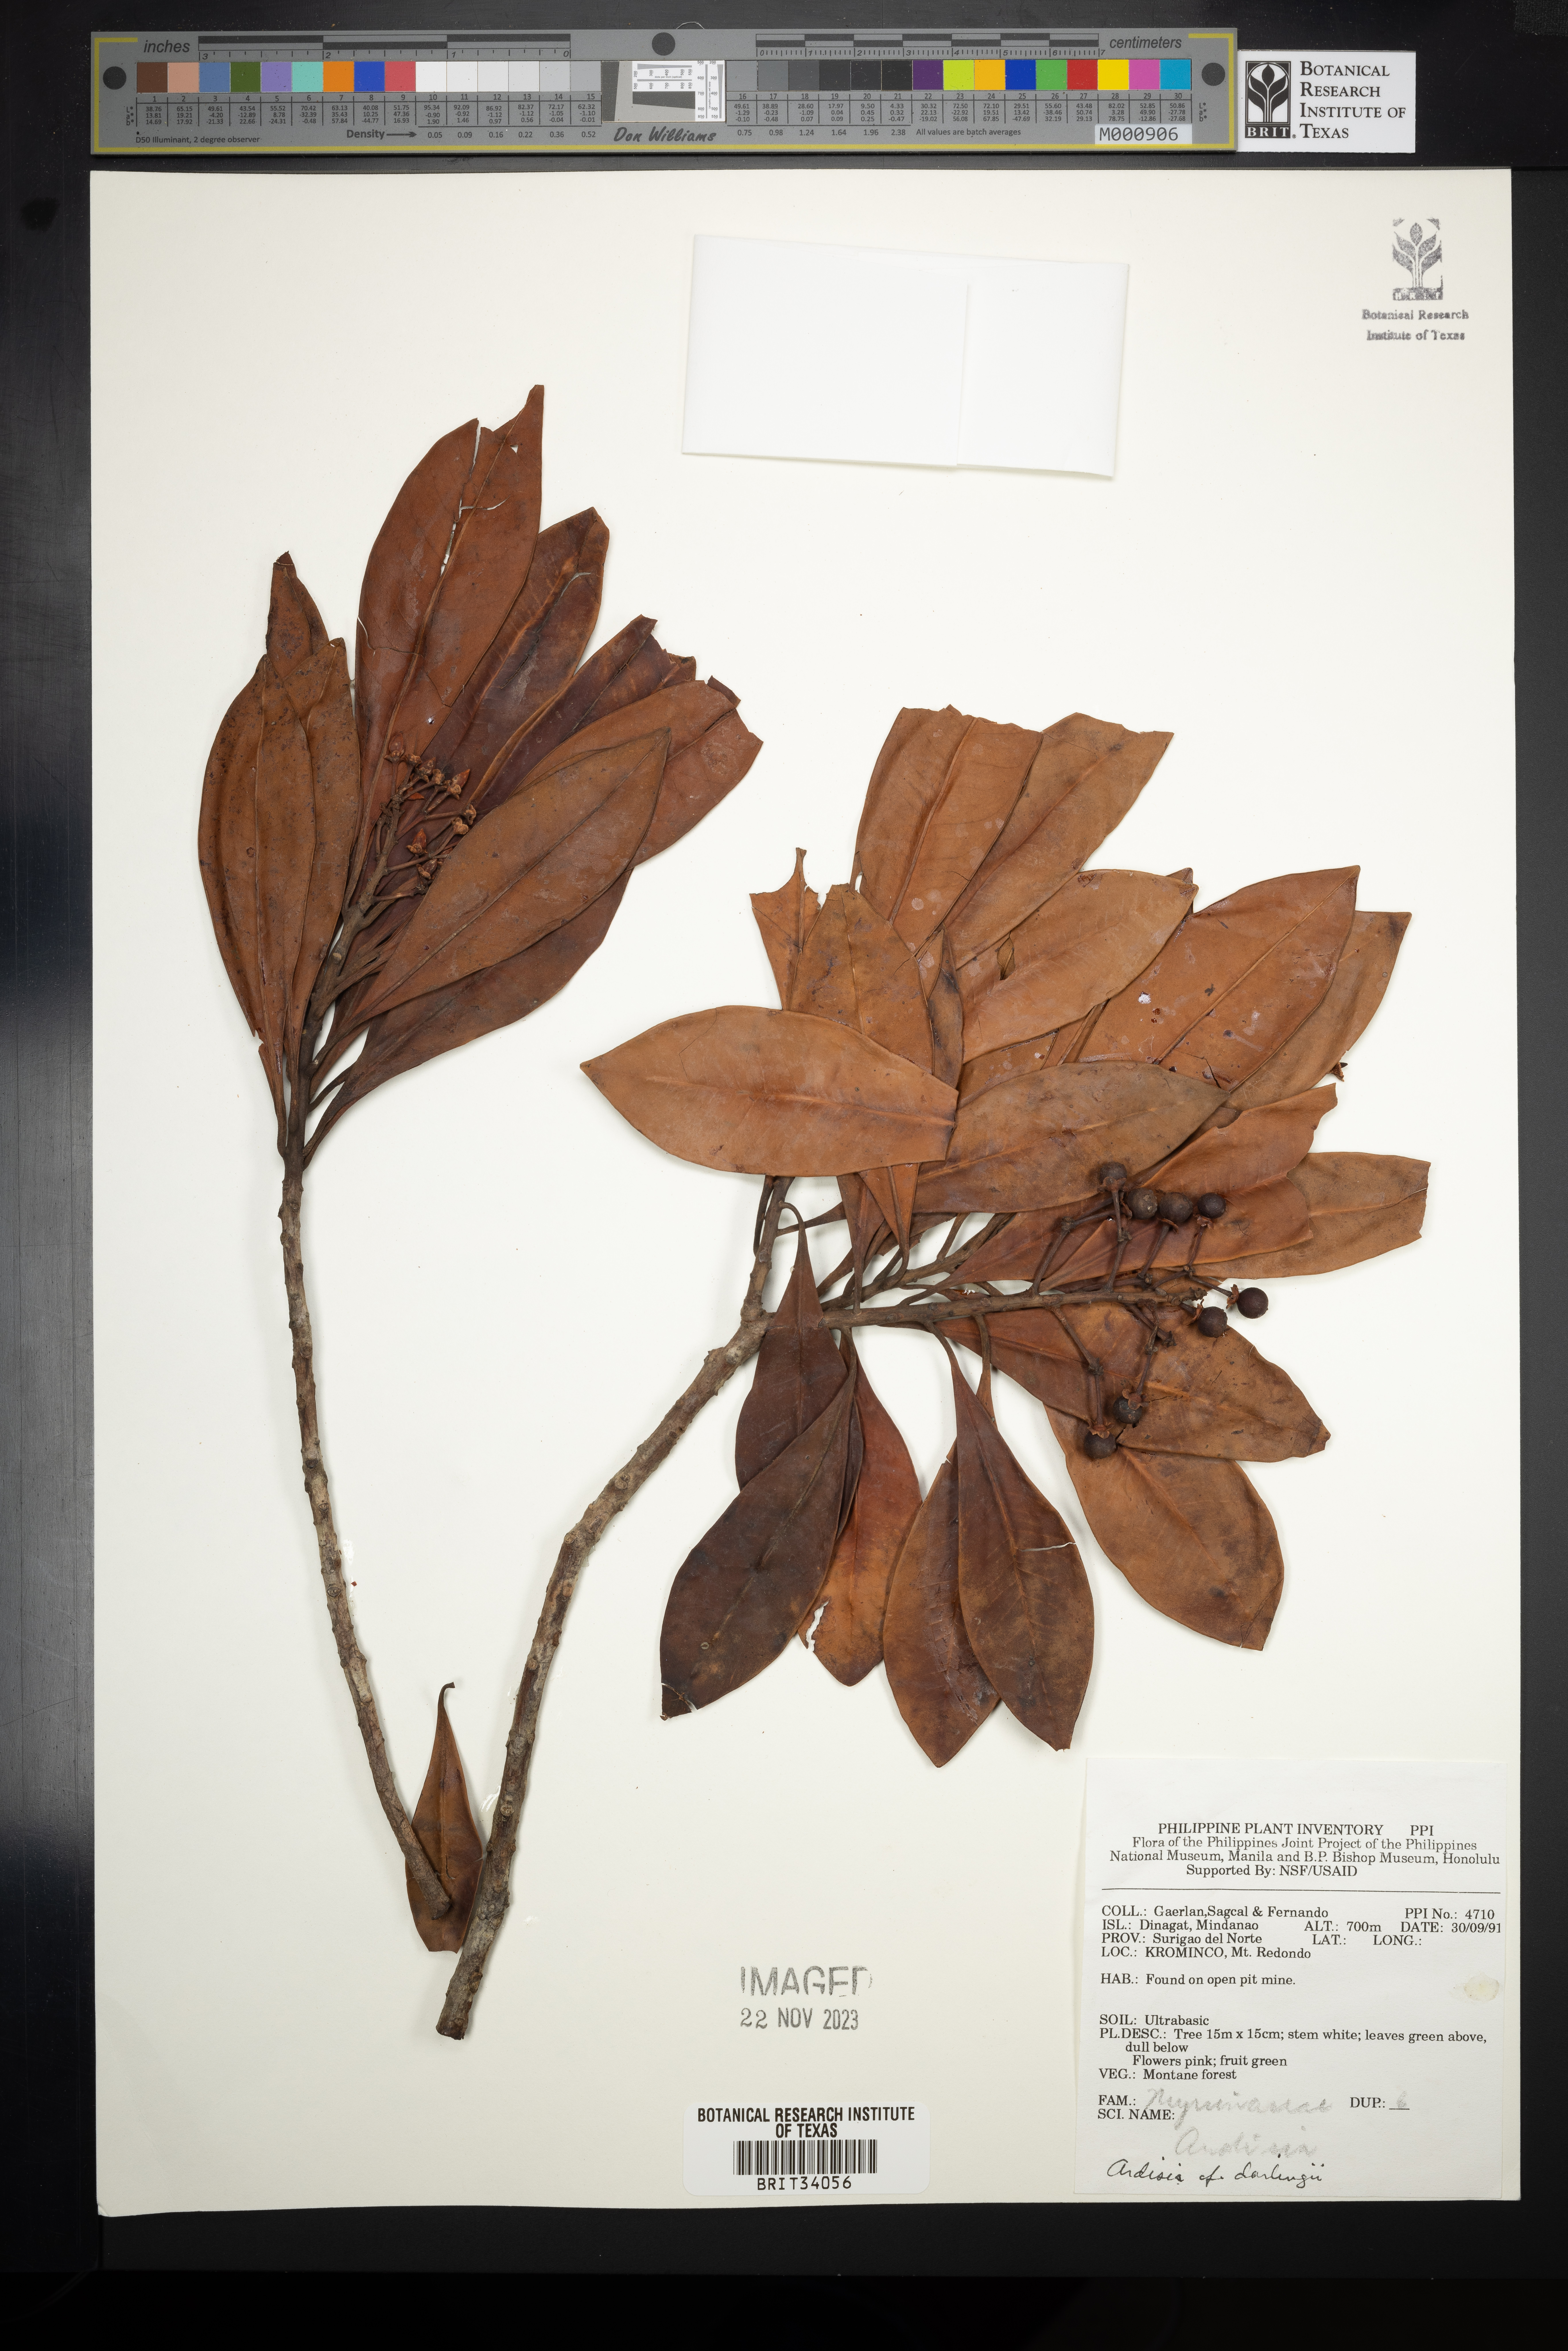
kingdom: Plantae
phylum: Tracheophyta
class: Magnoliopsida
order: Ericales
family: Primulaceae
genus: Ardisia
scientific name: Ardisia darlingii
